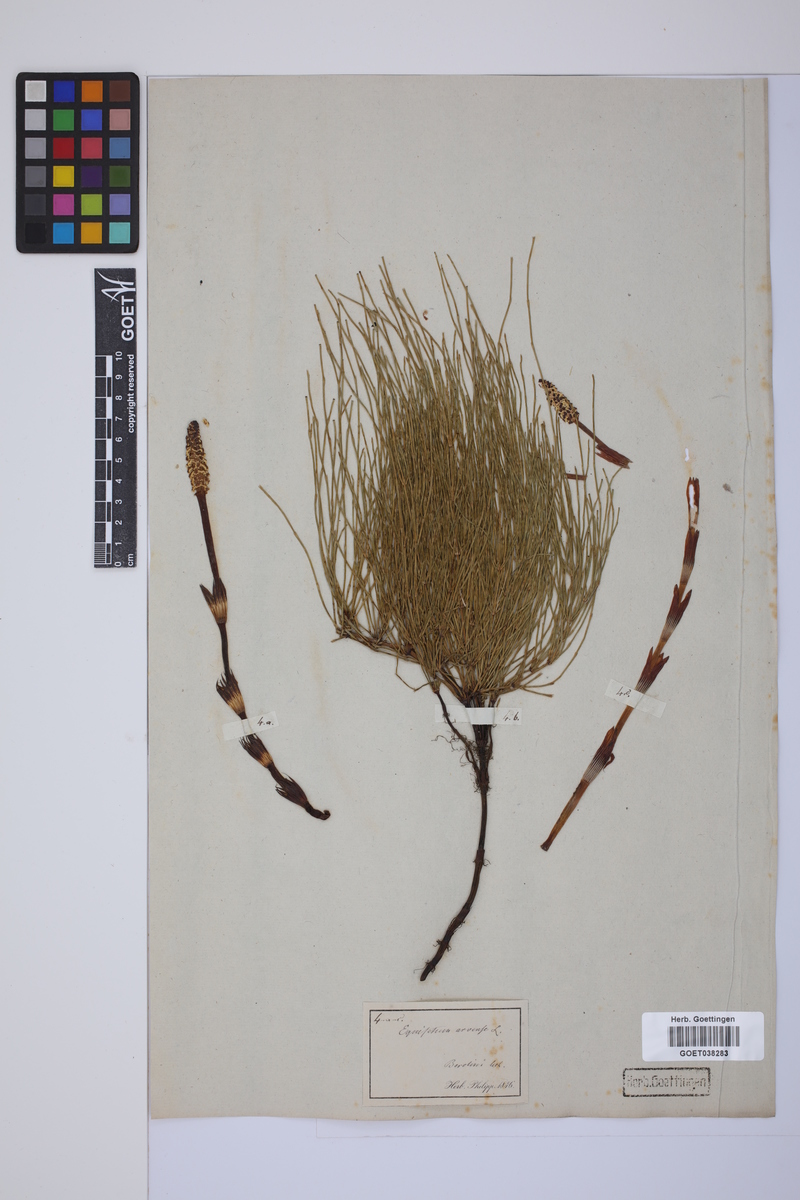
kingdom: Plantae
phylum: Tracheophyta
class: Polypodiopsida
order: Equisetales
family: Equisetaceae
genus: Equisetum
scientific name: Equisetum arvense
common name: Field horsetail
